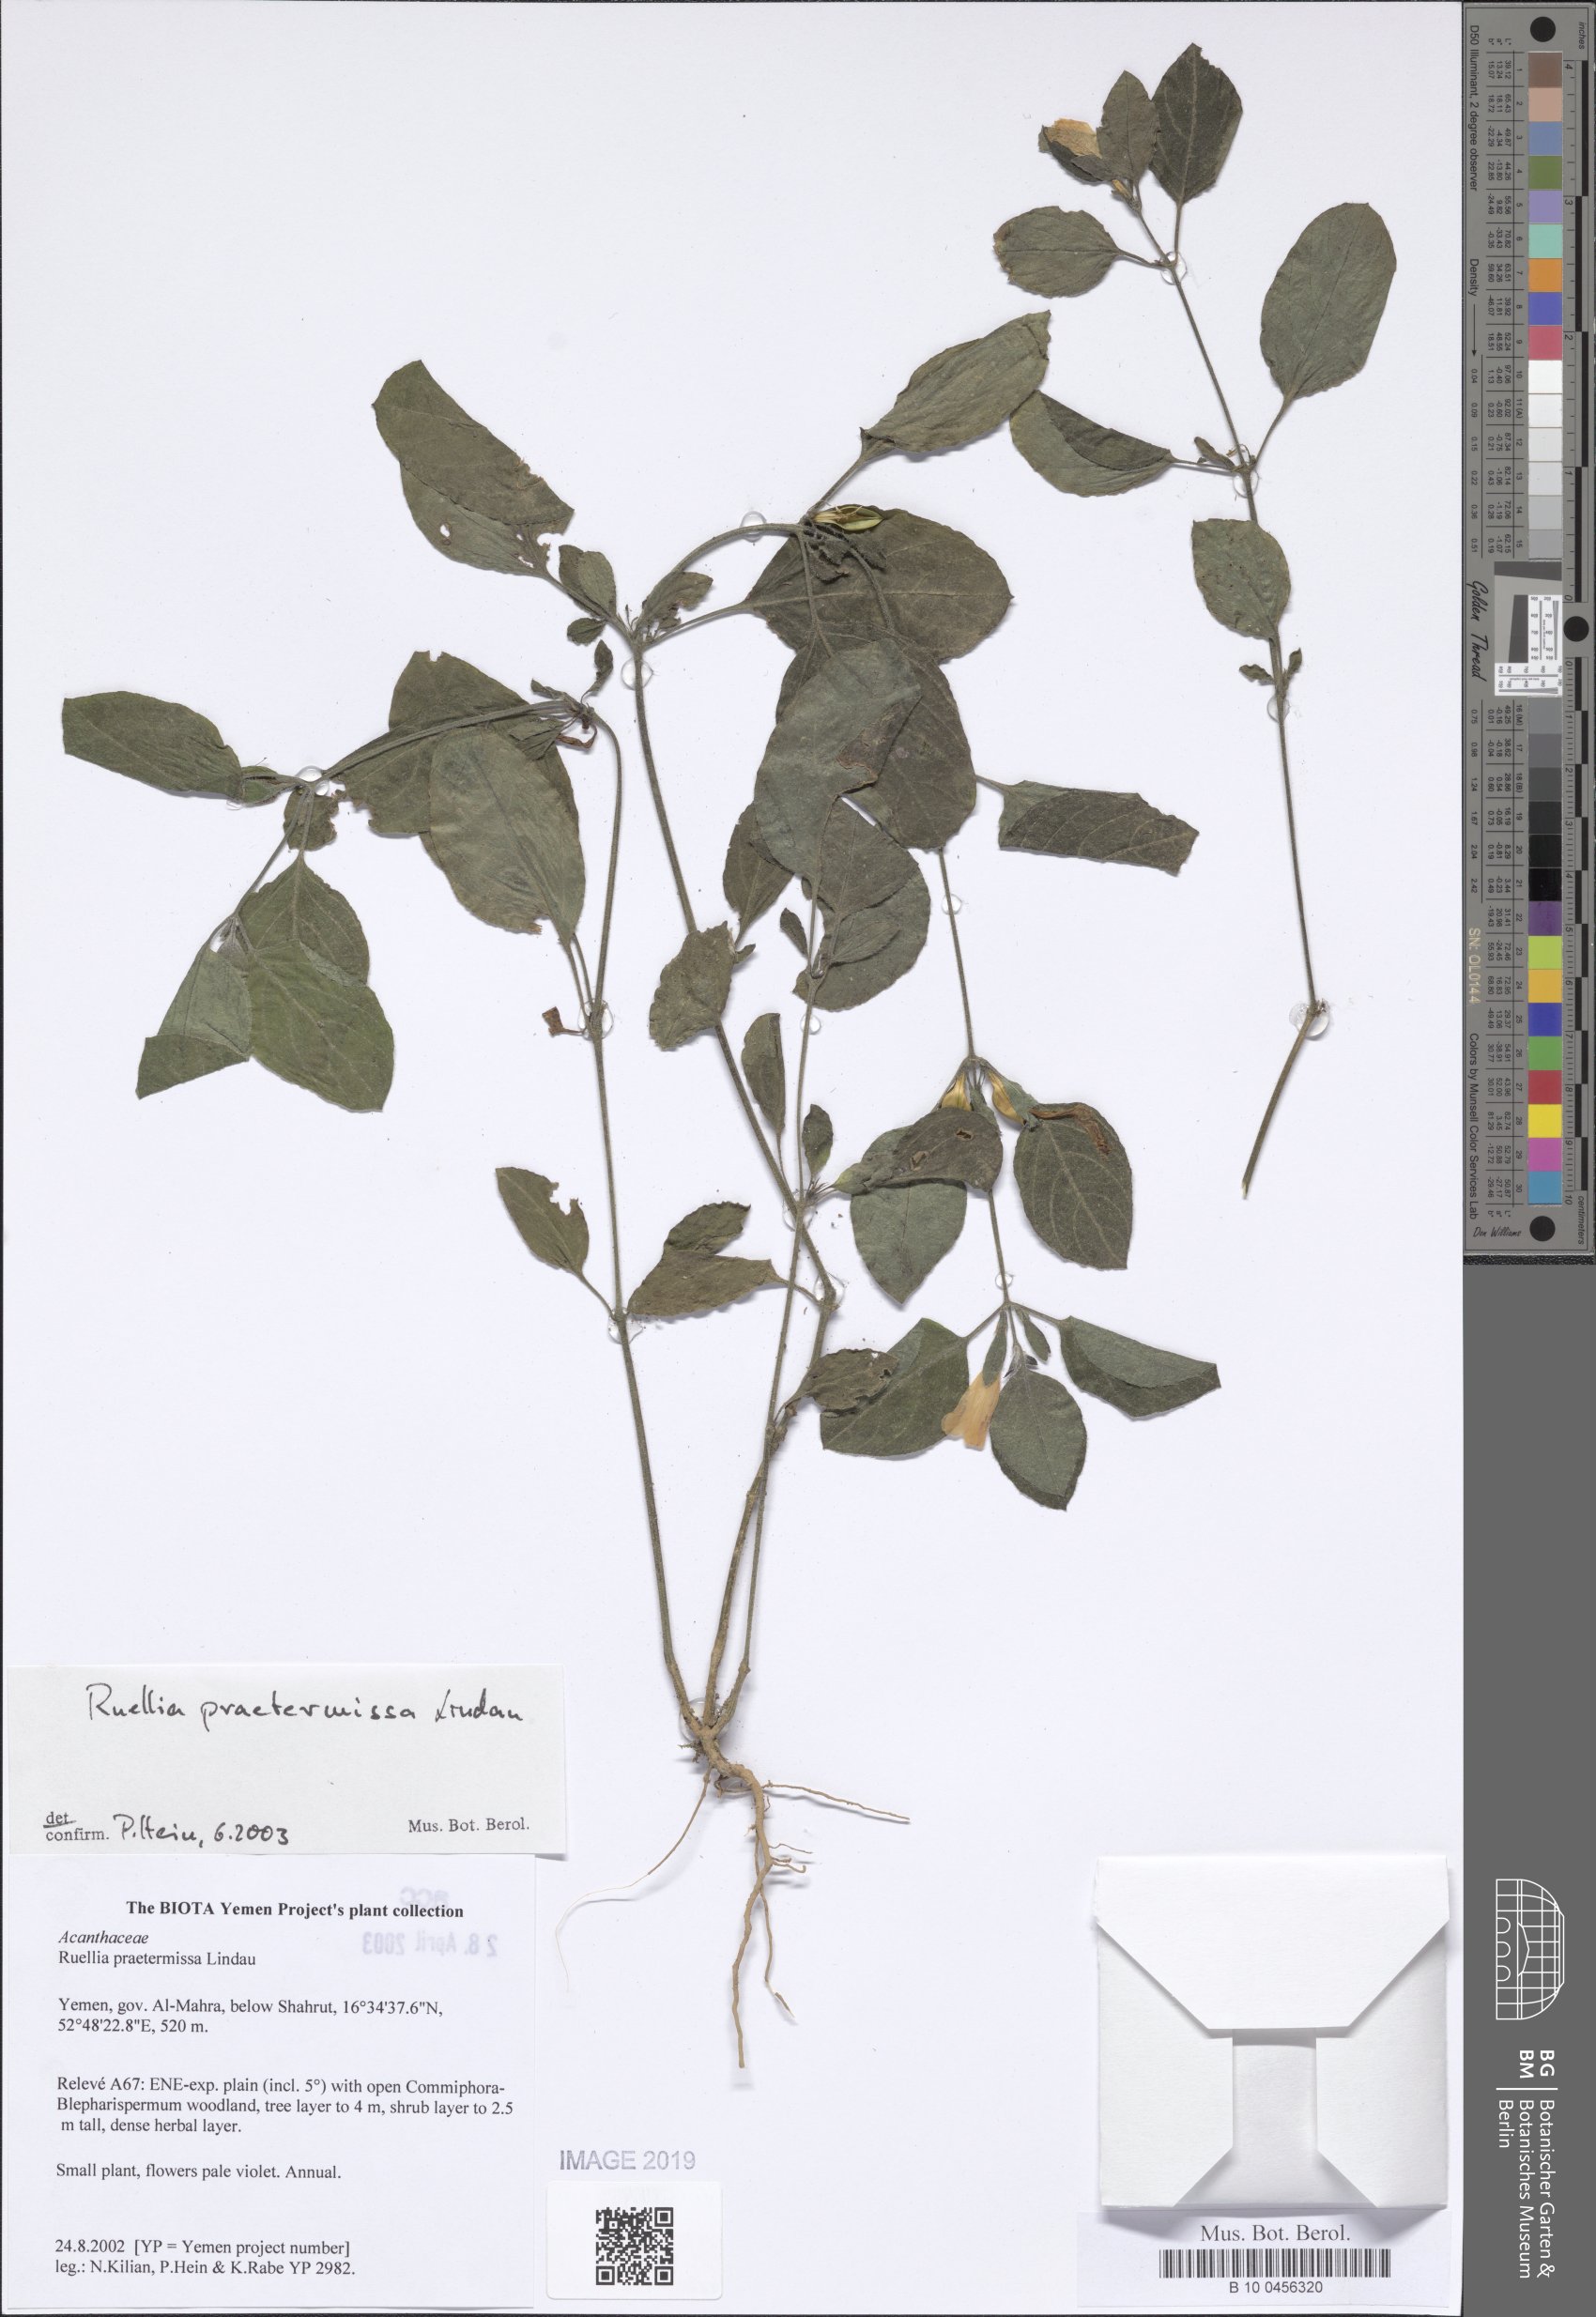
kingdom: Plantae
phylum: Tracheophyta
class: Magnoliopsida
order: Lamiales
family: Acanthaceae
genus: Ruellia
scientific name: Ruellia praetermissa
